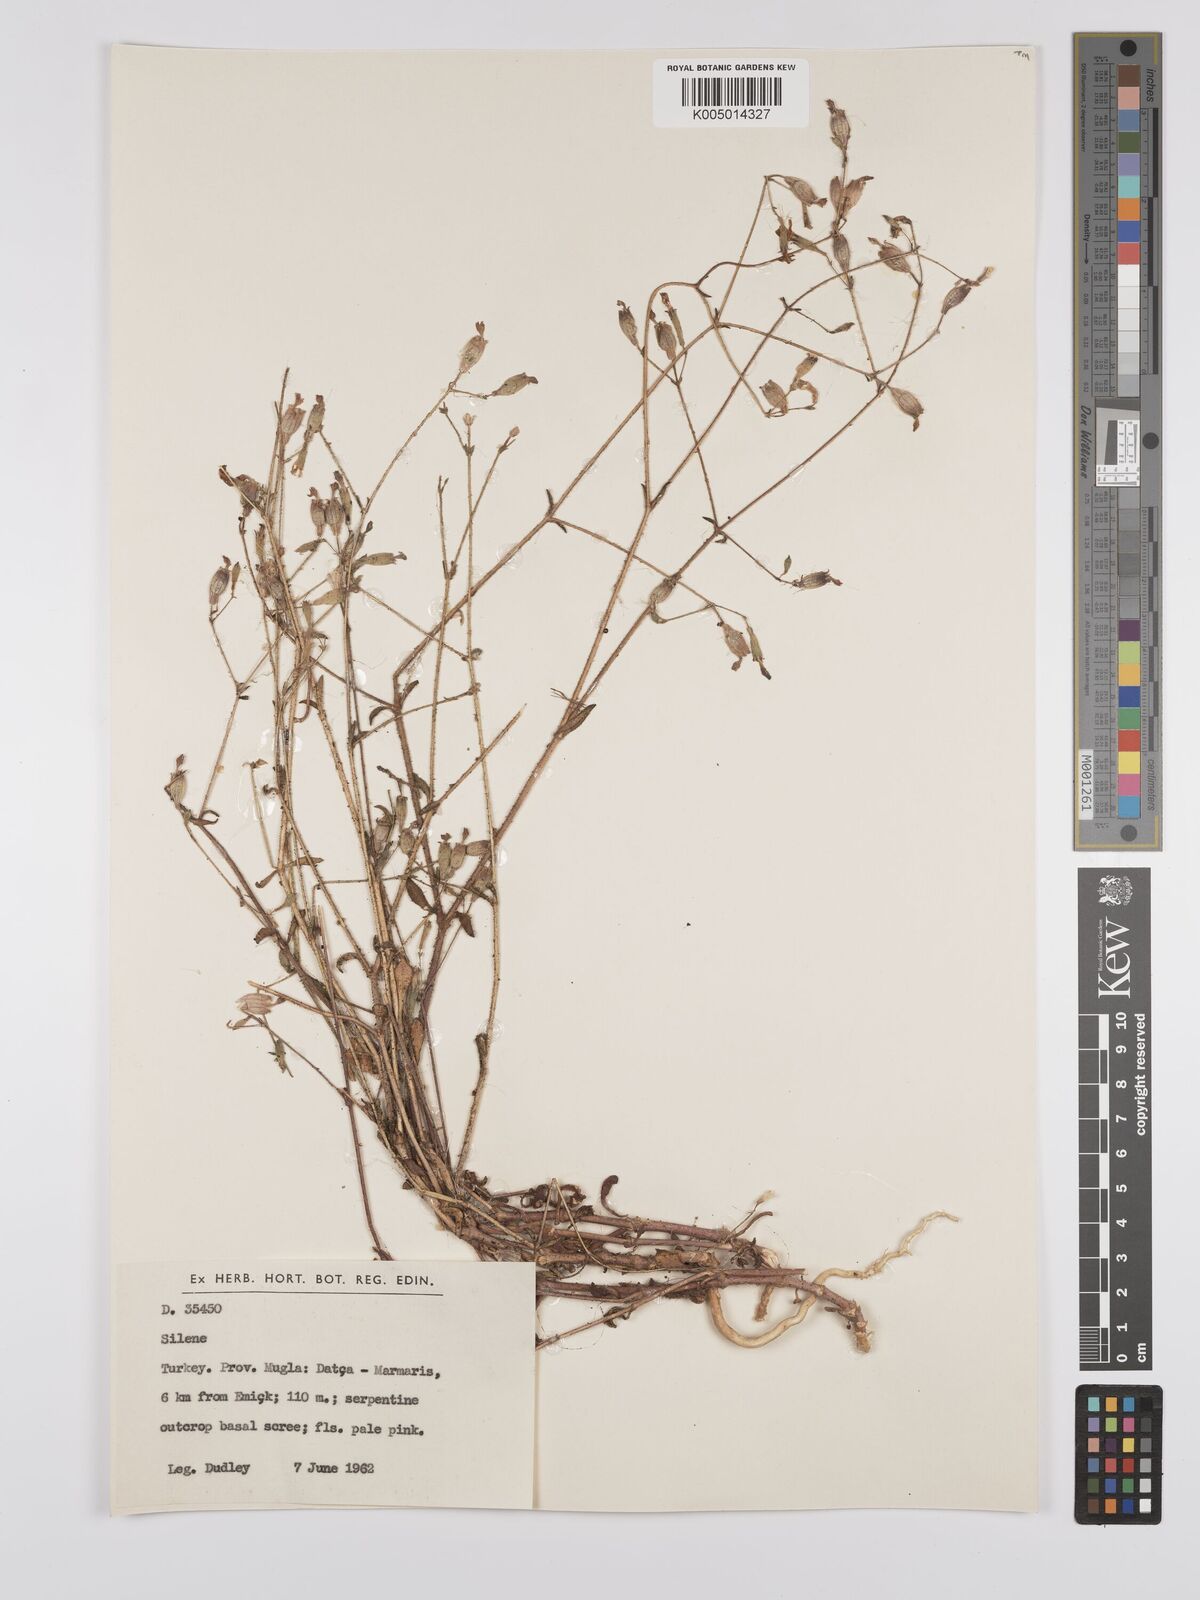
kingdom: Plantae
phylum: Tracheophyta
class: Magnoliopsida
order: Caryophyllales
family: Caryophyllaceae
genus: Silene
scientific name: Silene
